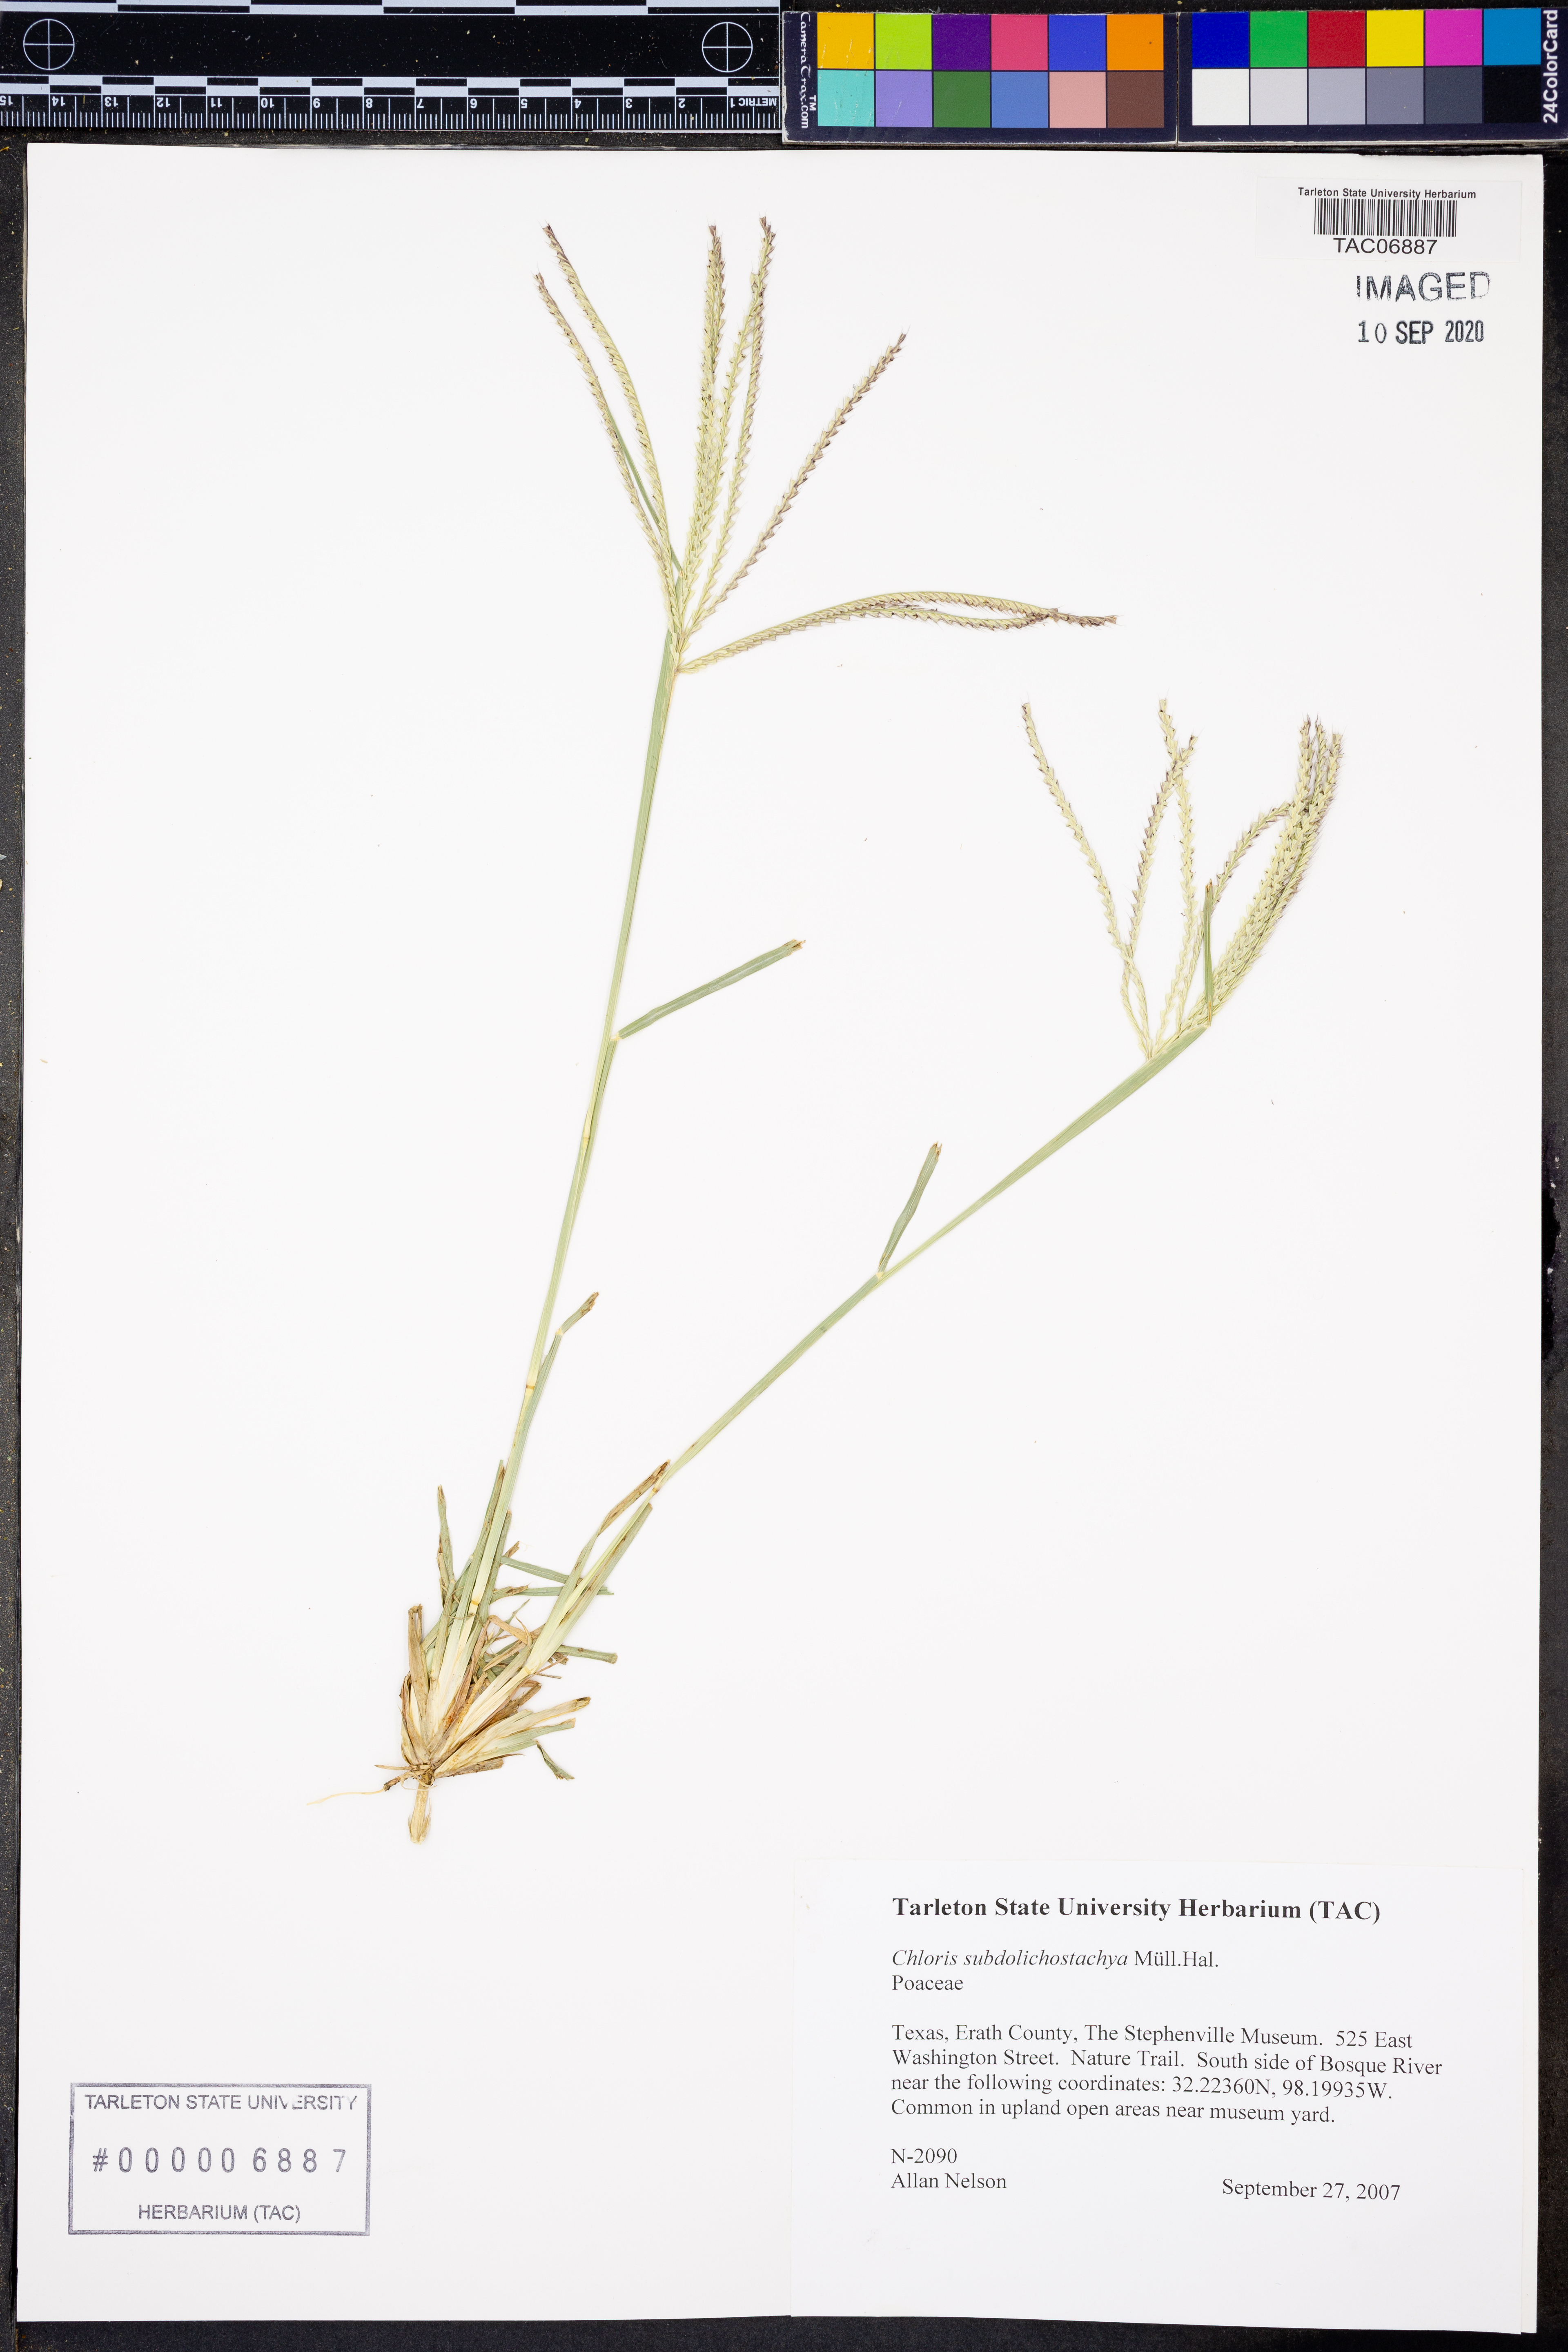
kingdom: Plantae
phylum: Tracheophyta
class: Liliopsida
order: Poales
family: Poaceae
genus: Chloris
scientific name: Chloris subdolichostachya
